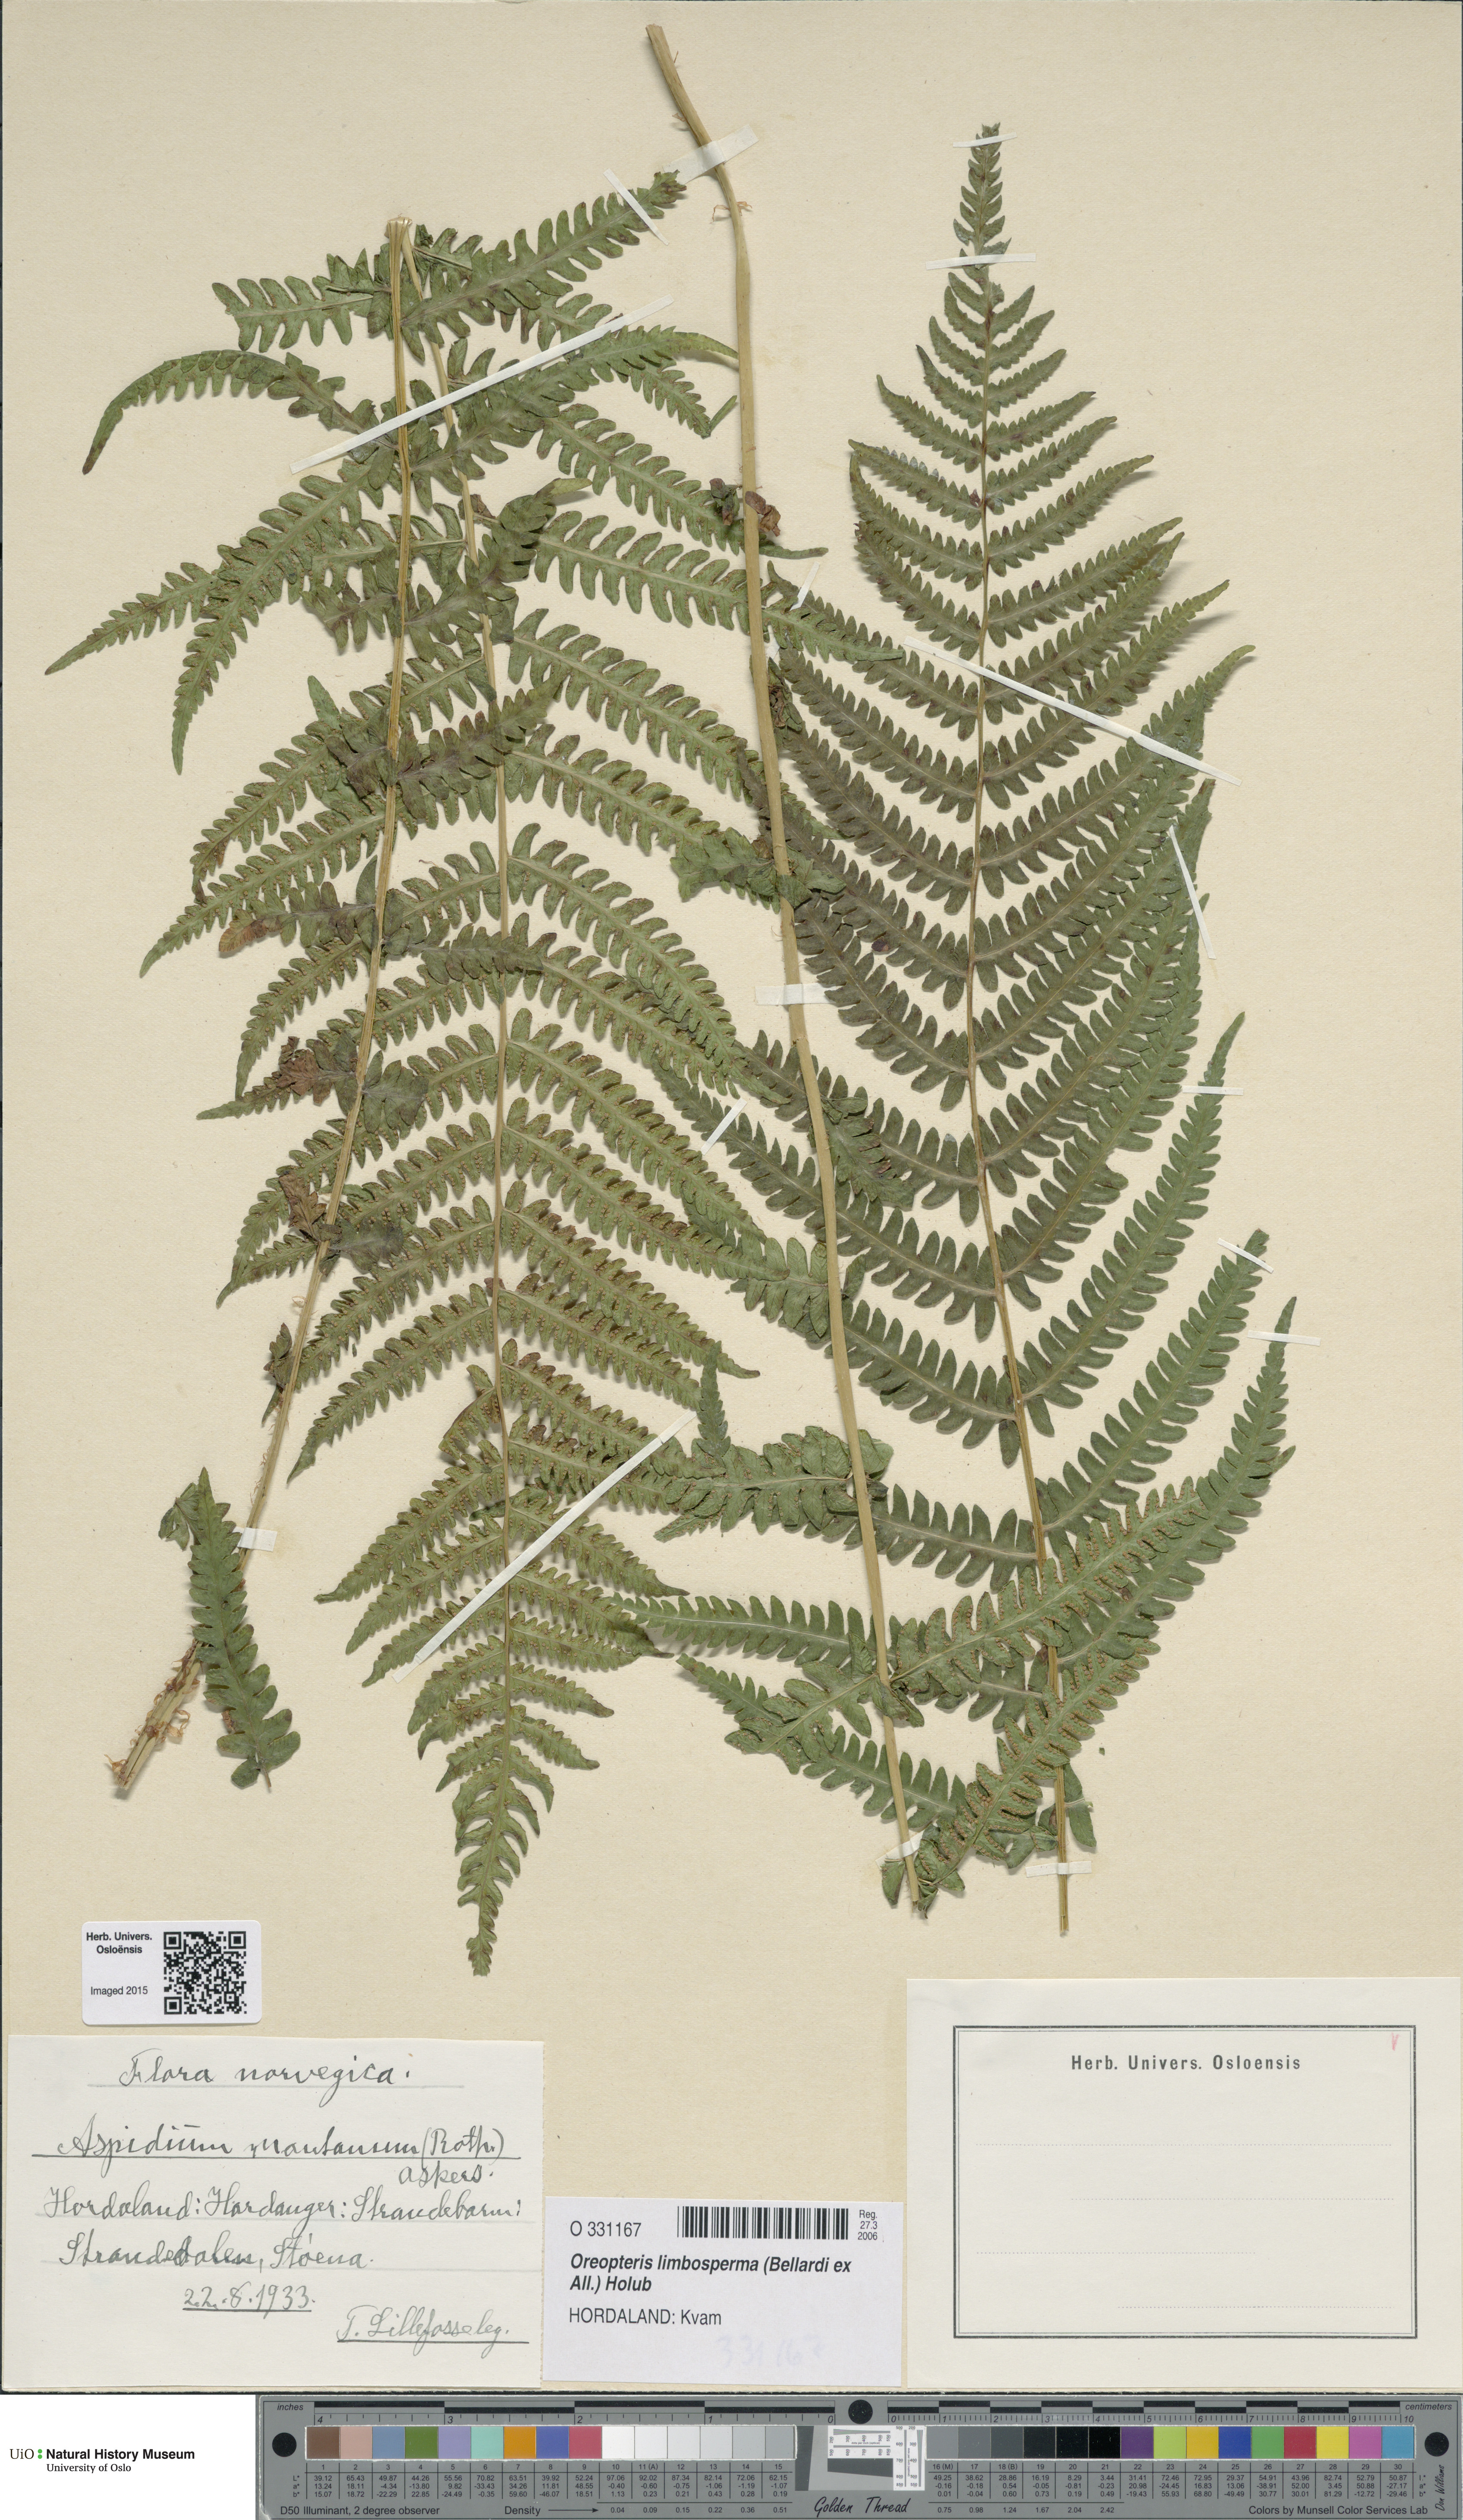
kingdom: Plantae
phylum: Tracheophyta
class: Polypodiopsida
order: Polypodiales
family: Thelypteridaceae
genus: Oreopteris
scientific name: Oreopteris limbosperma
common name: Lemon-scented fern
